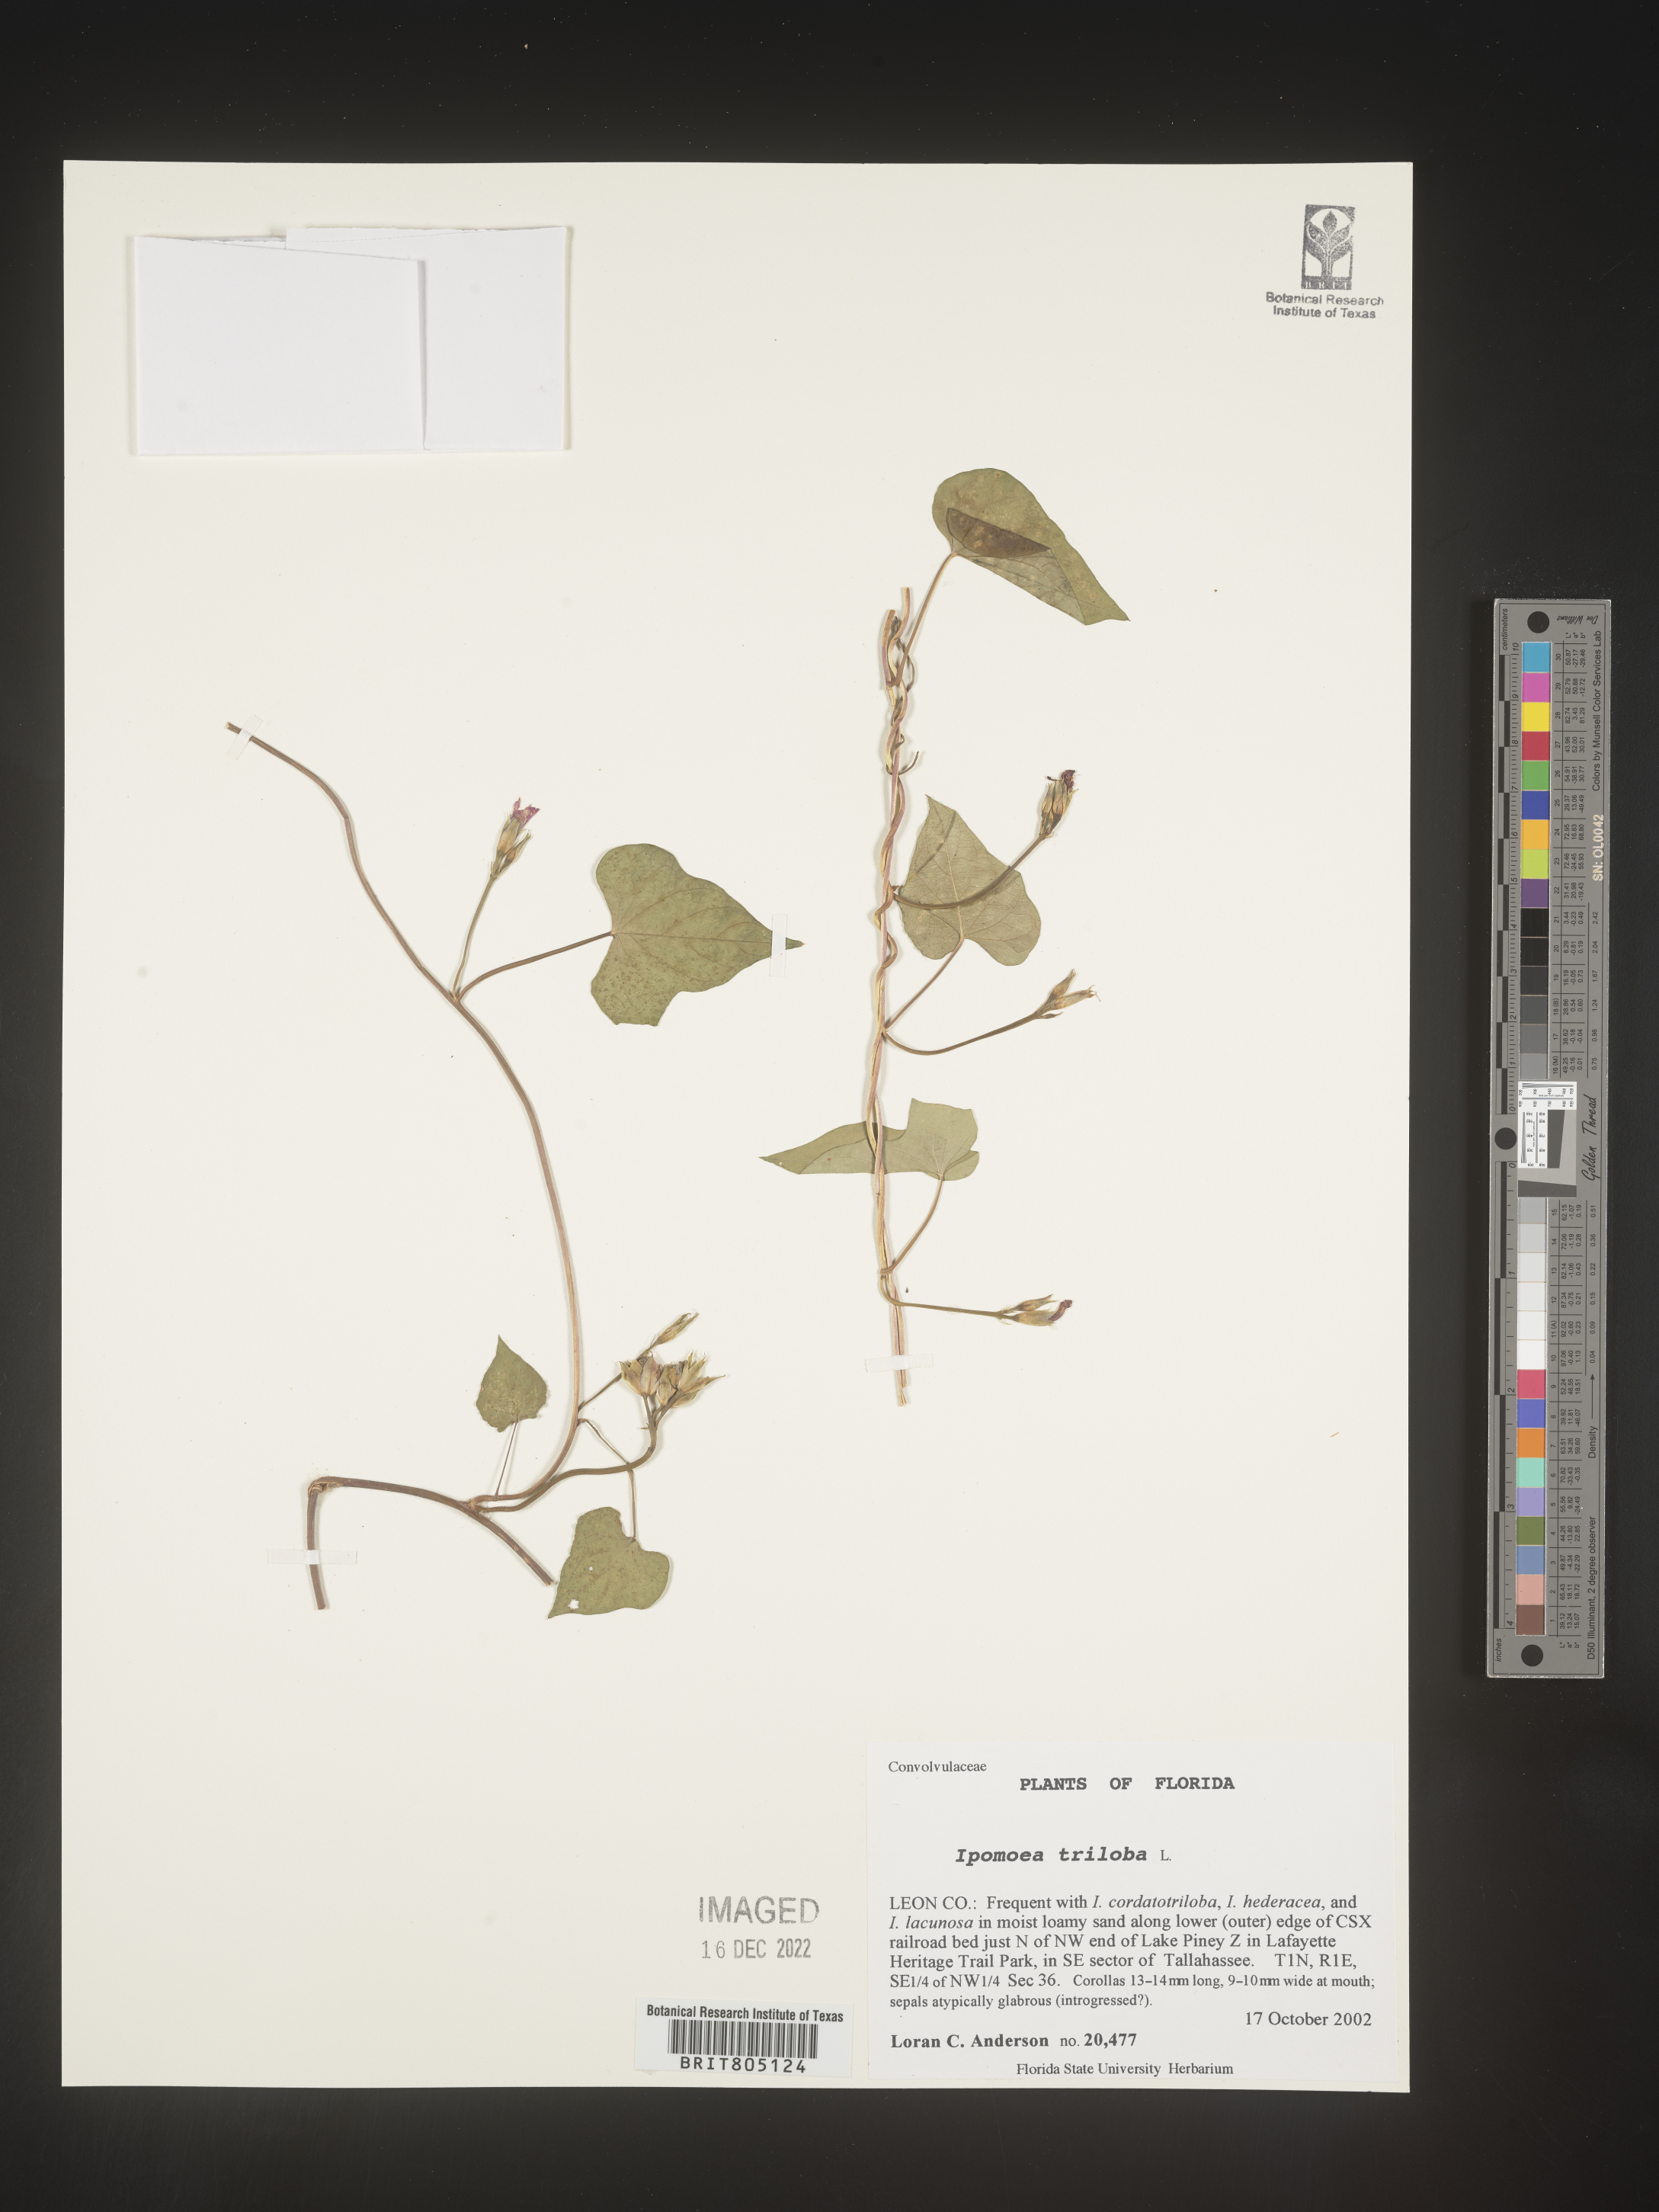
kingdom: Plantae
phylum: Tracheophyta
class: Magnoliopsida
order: Solanales
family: Convolvulaceae
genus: Ipomoea
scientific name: Ipomoea triloba
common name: Little-bell
